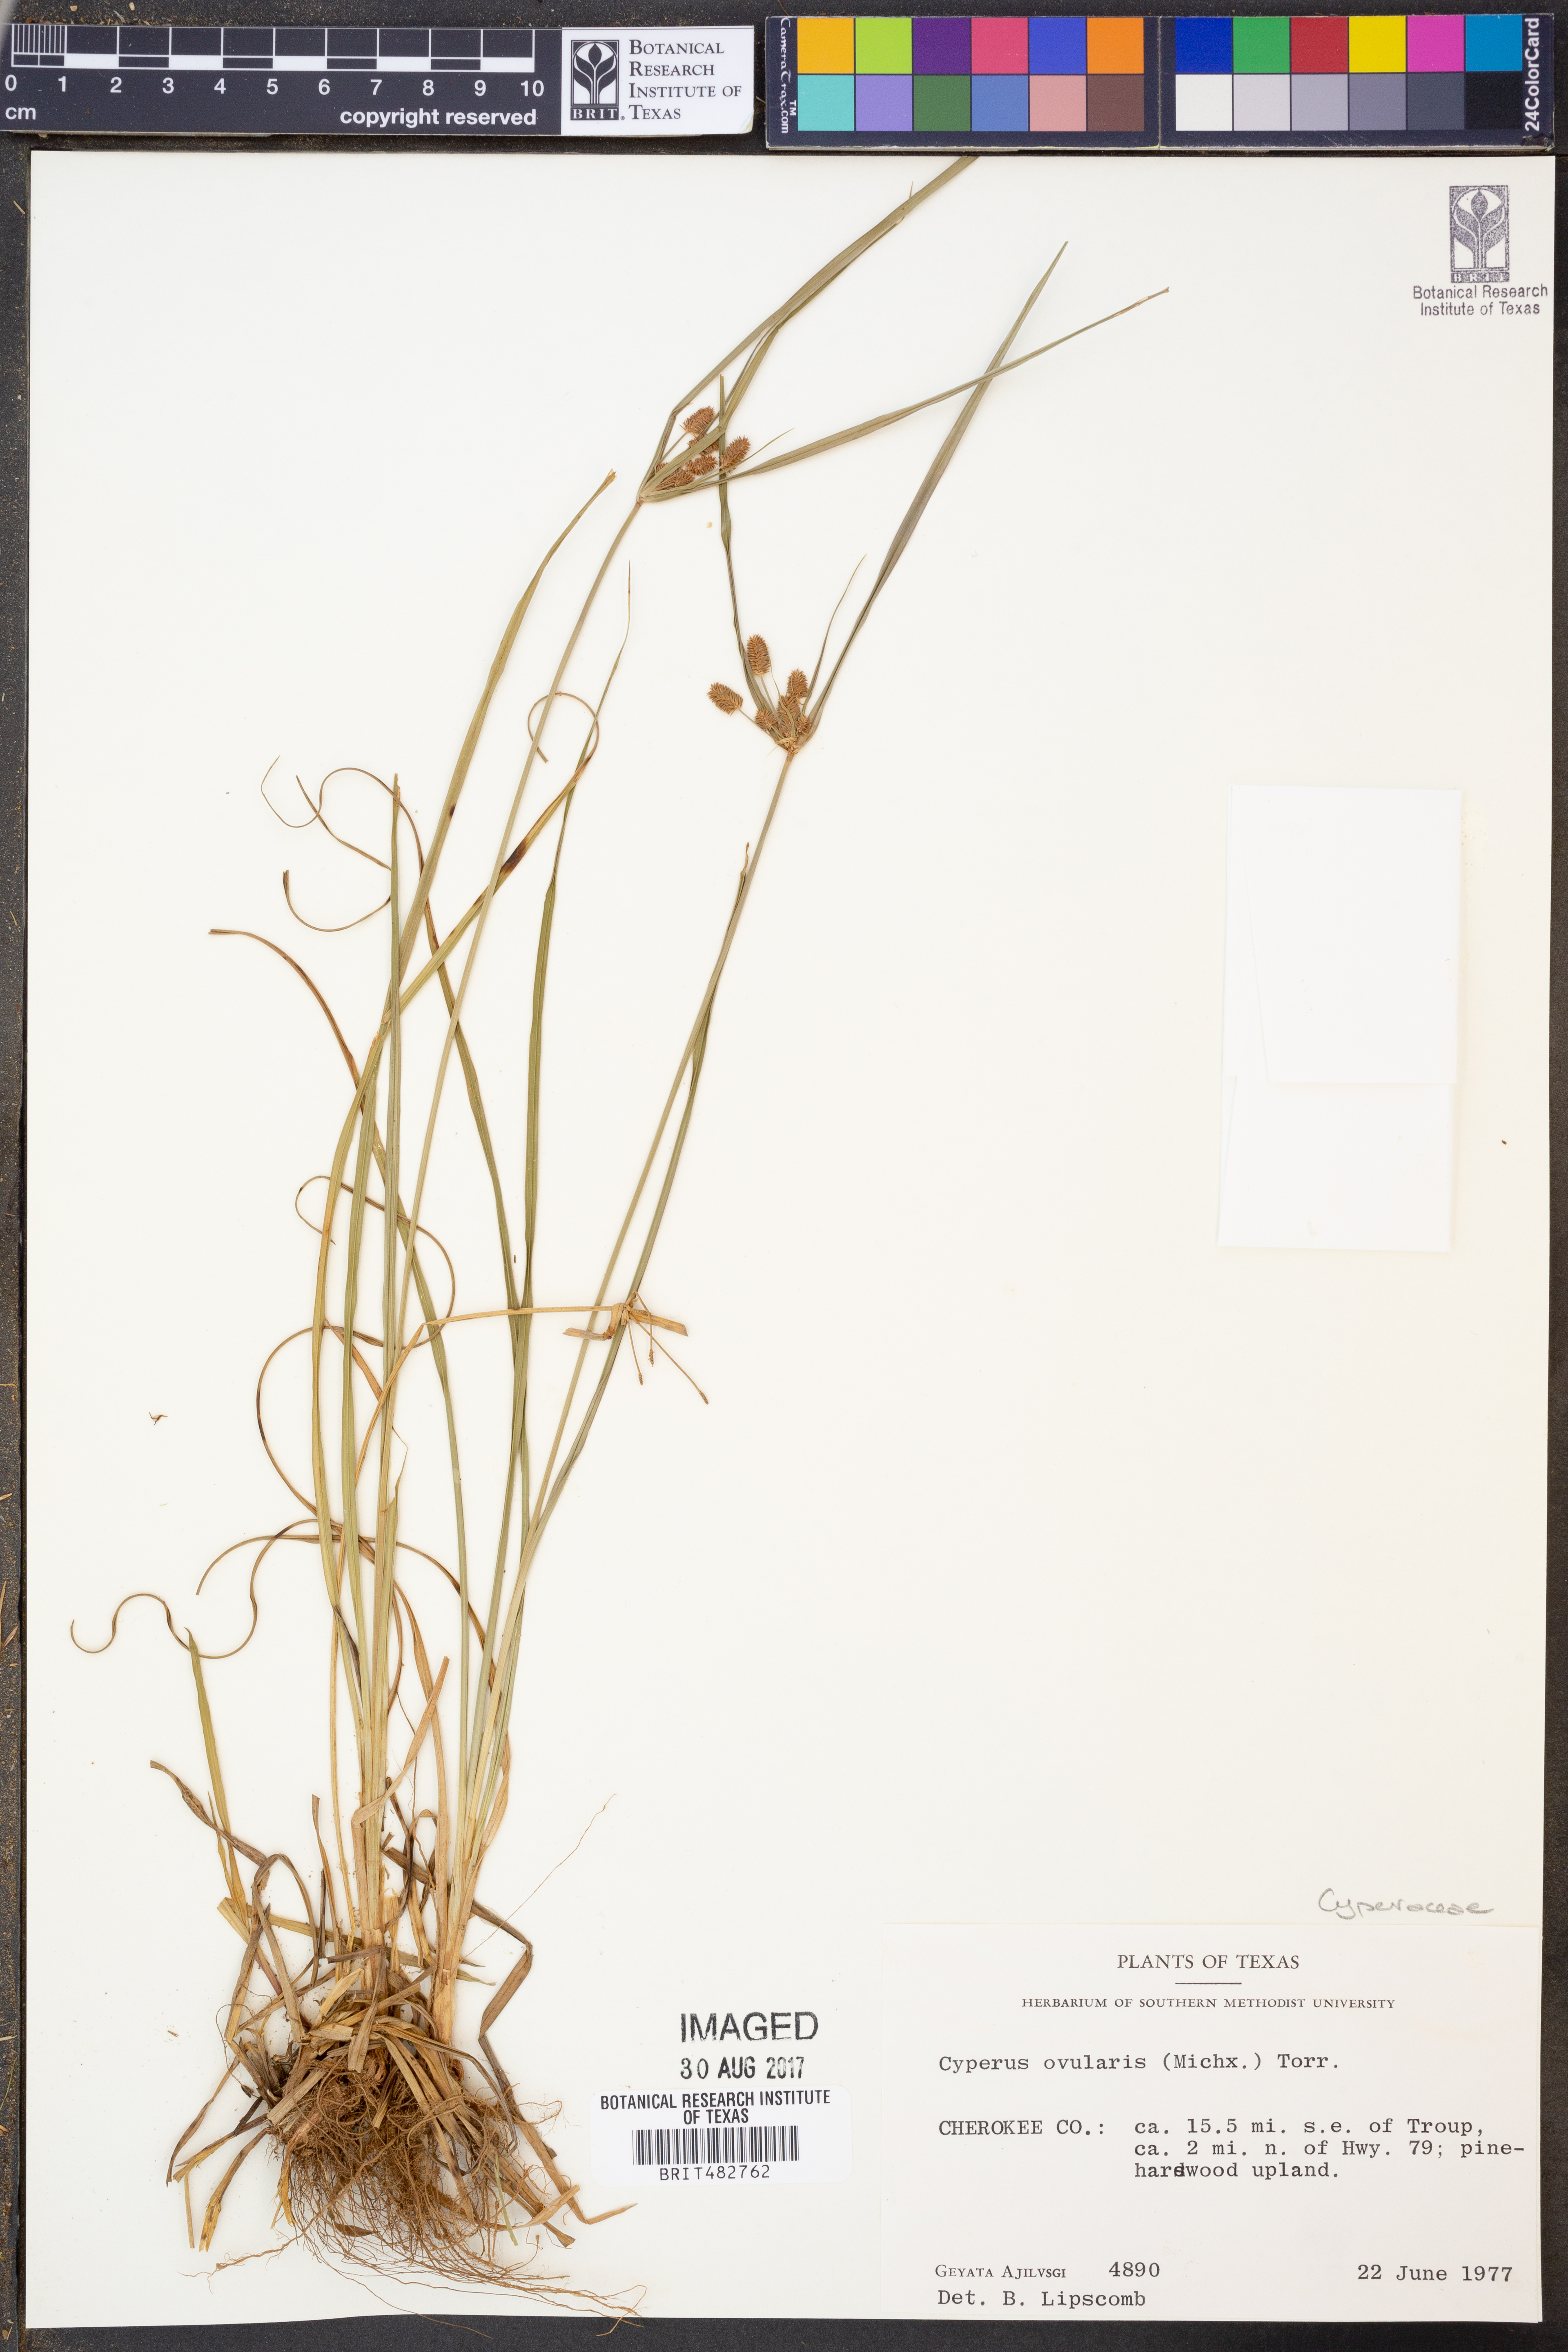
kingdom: Plantae
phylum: Tracheophyta
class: Liliopsida
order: Poales
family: Cyperaceae
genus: Cyperus
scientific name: Cyperus echinatus
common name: Teasel sedge
